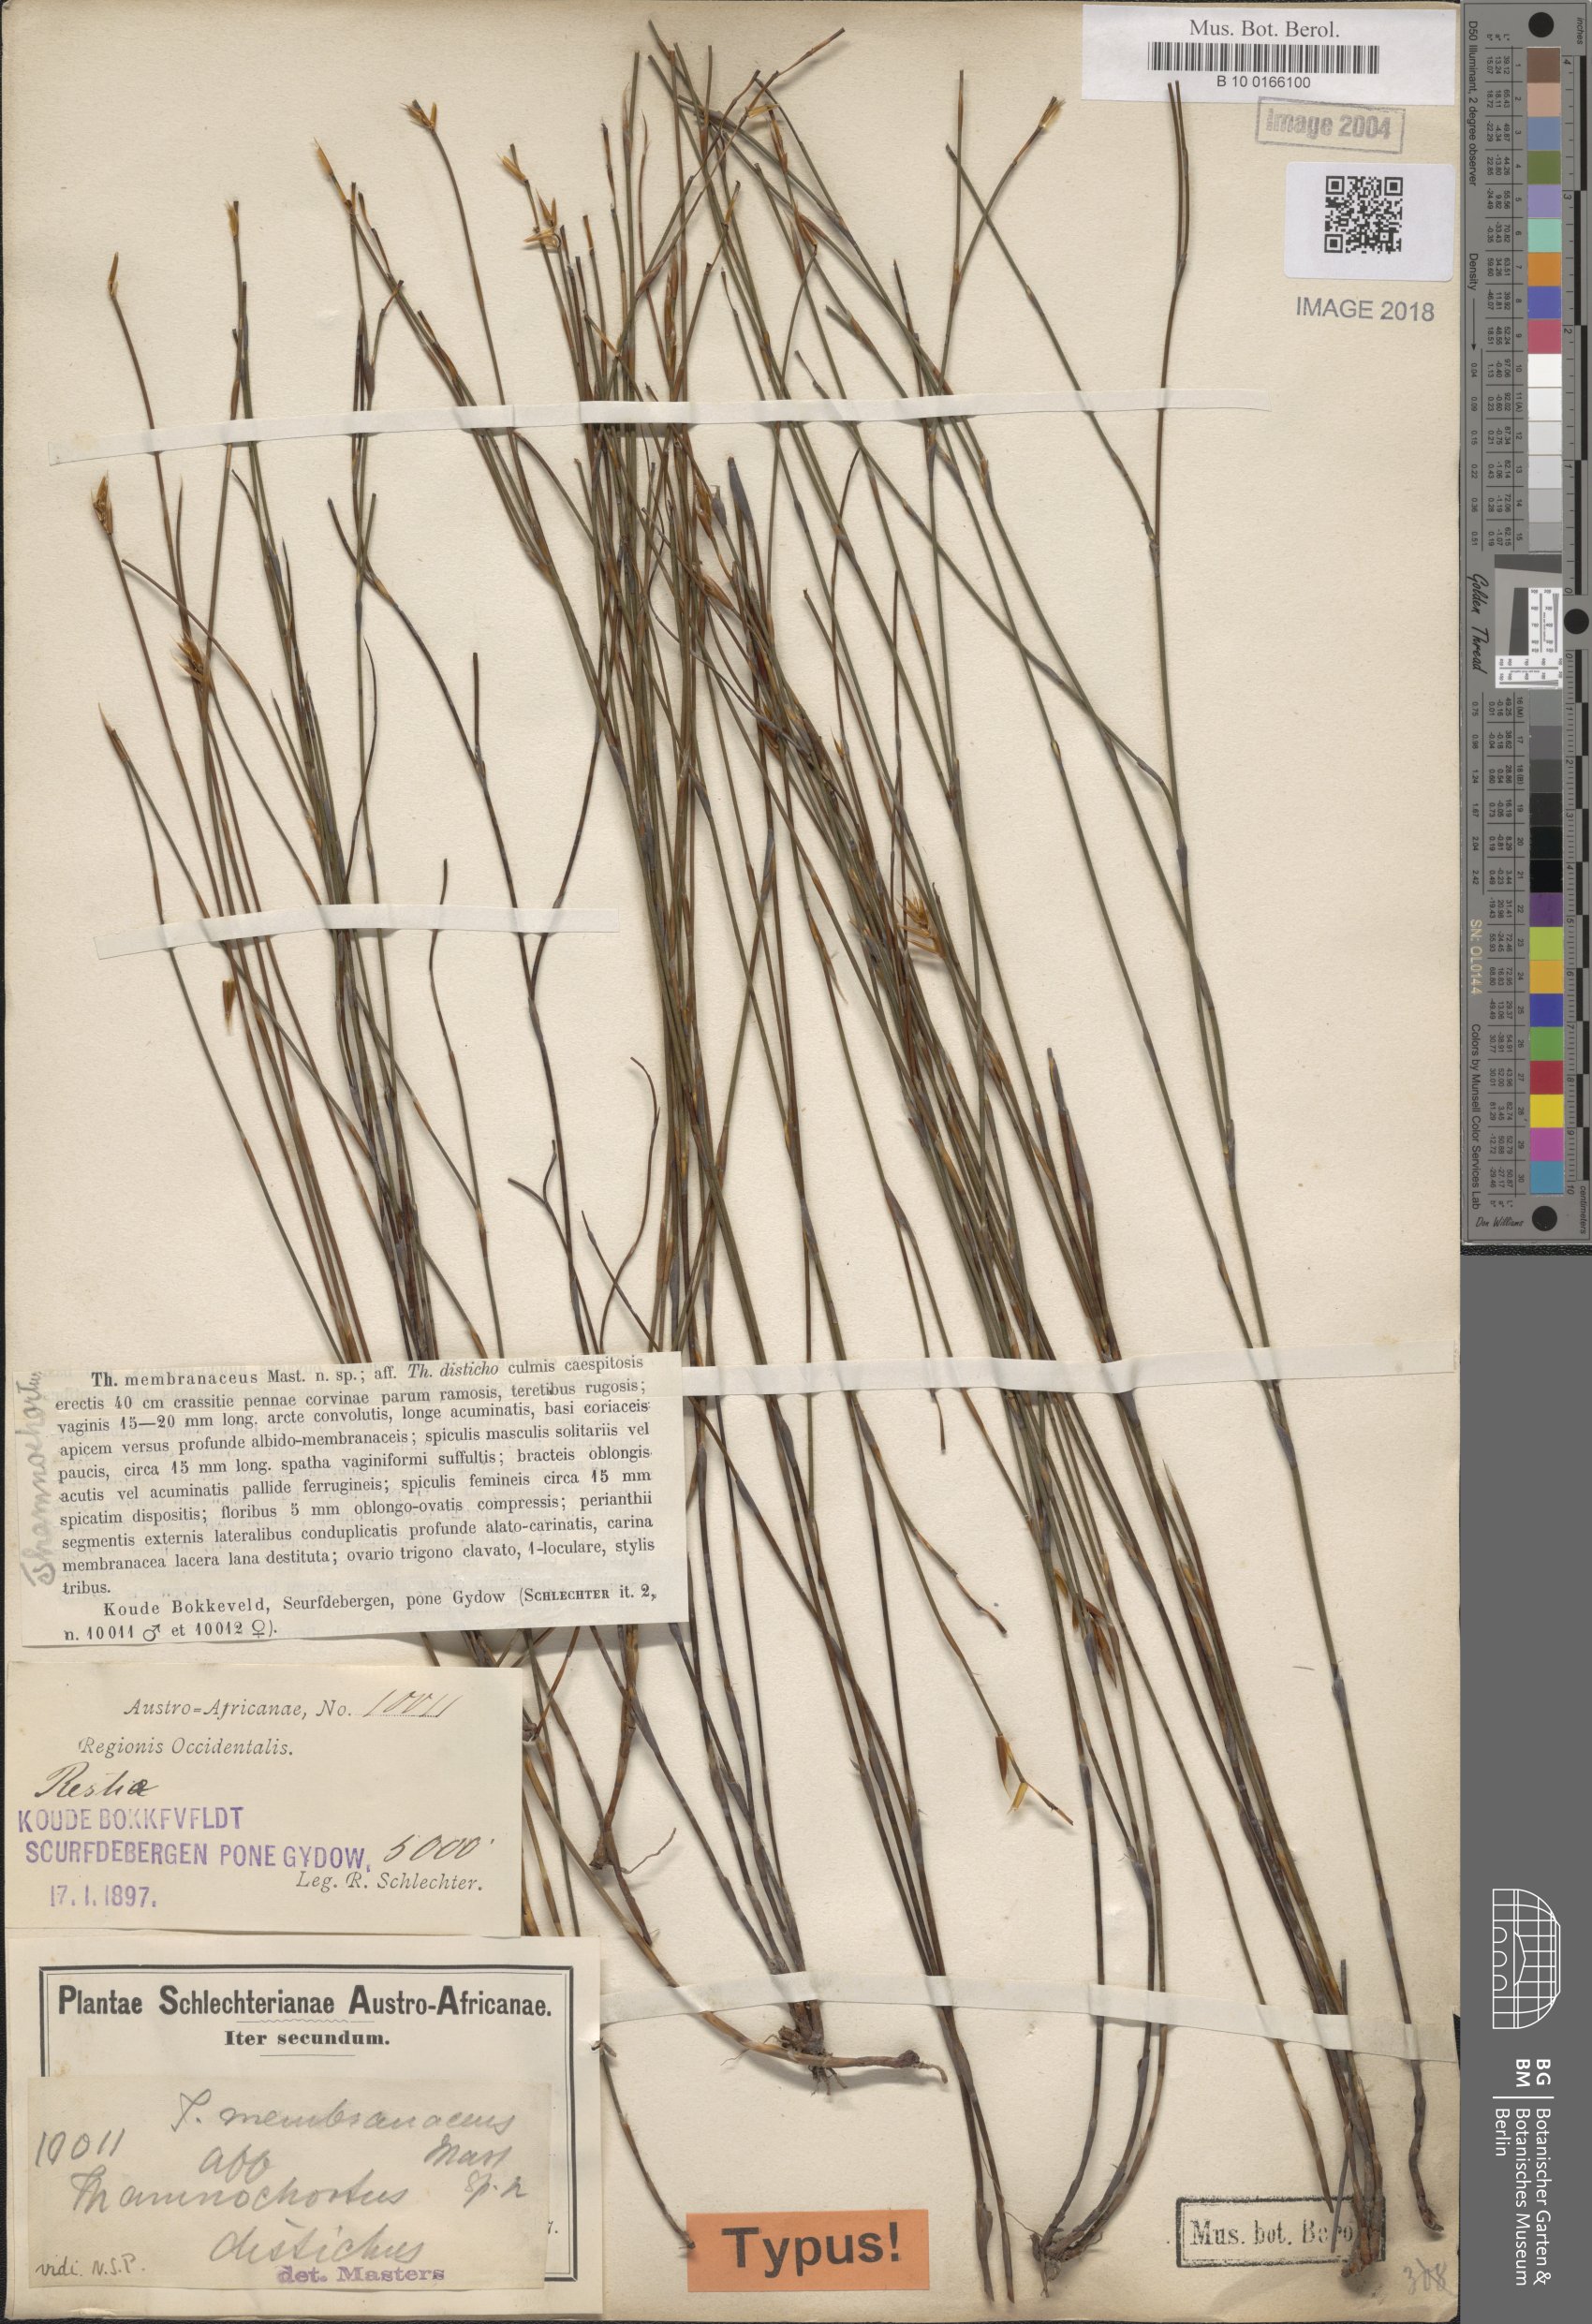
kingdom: Plantae
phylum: Tracheophyta
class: Liliopsida
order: Poales
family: Restionaceae
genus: Restio
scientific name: Restio distichus
